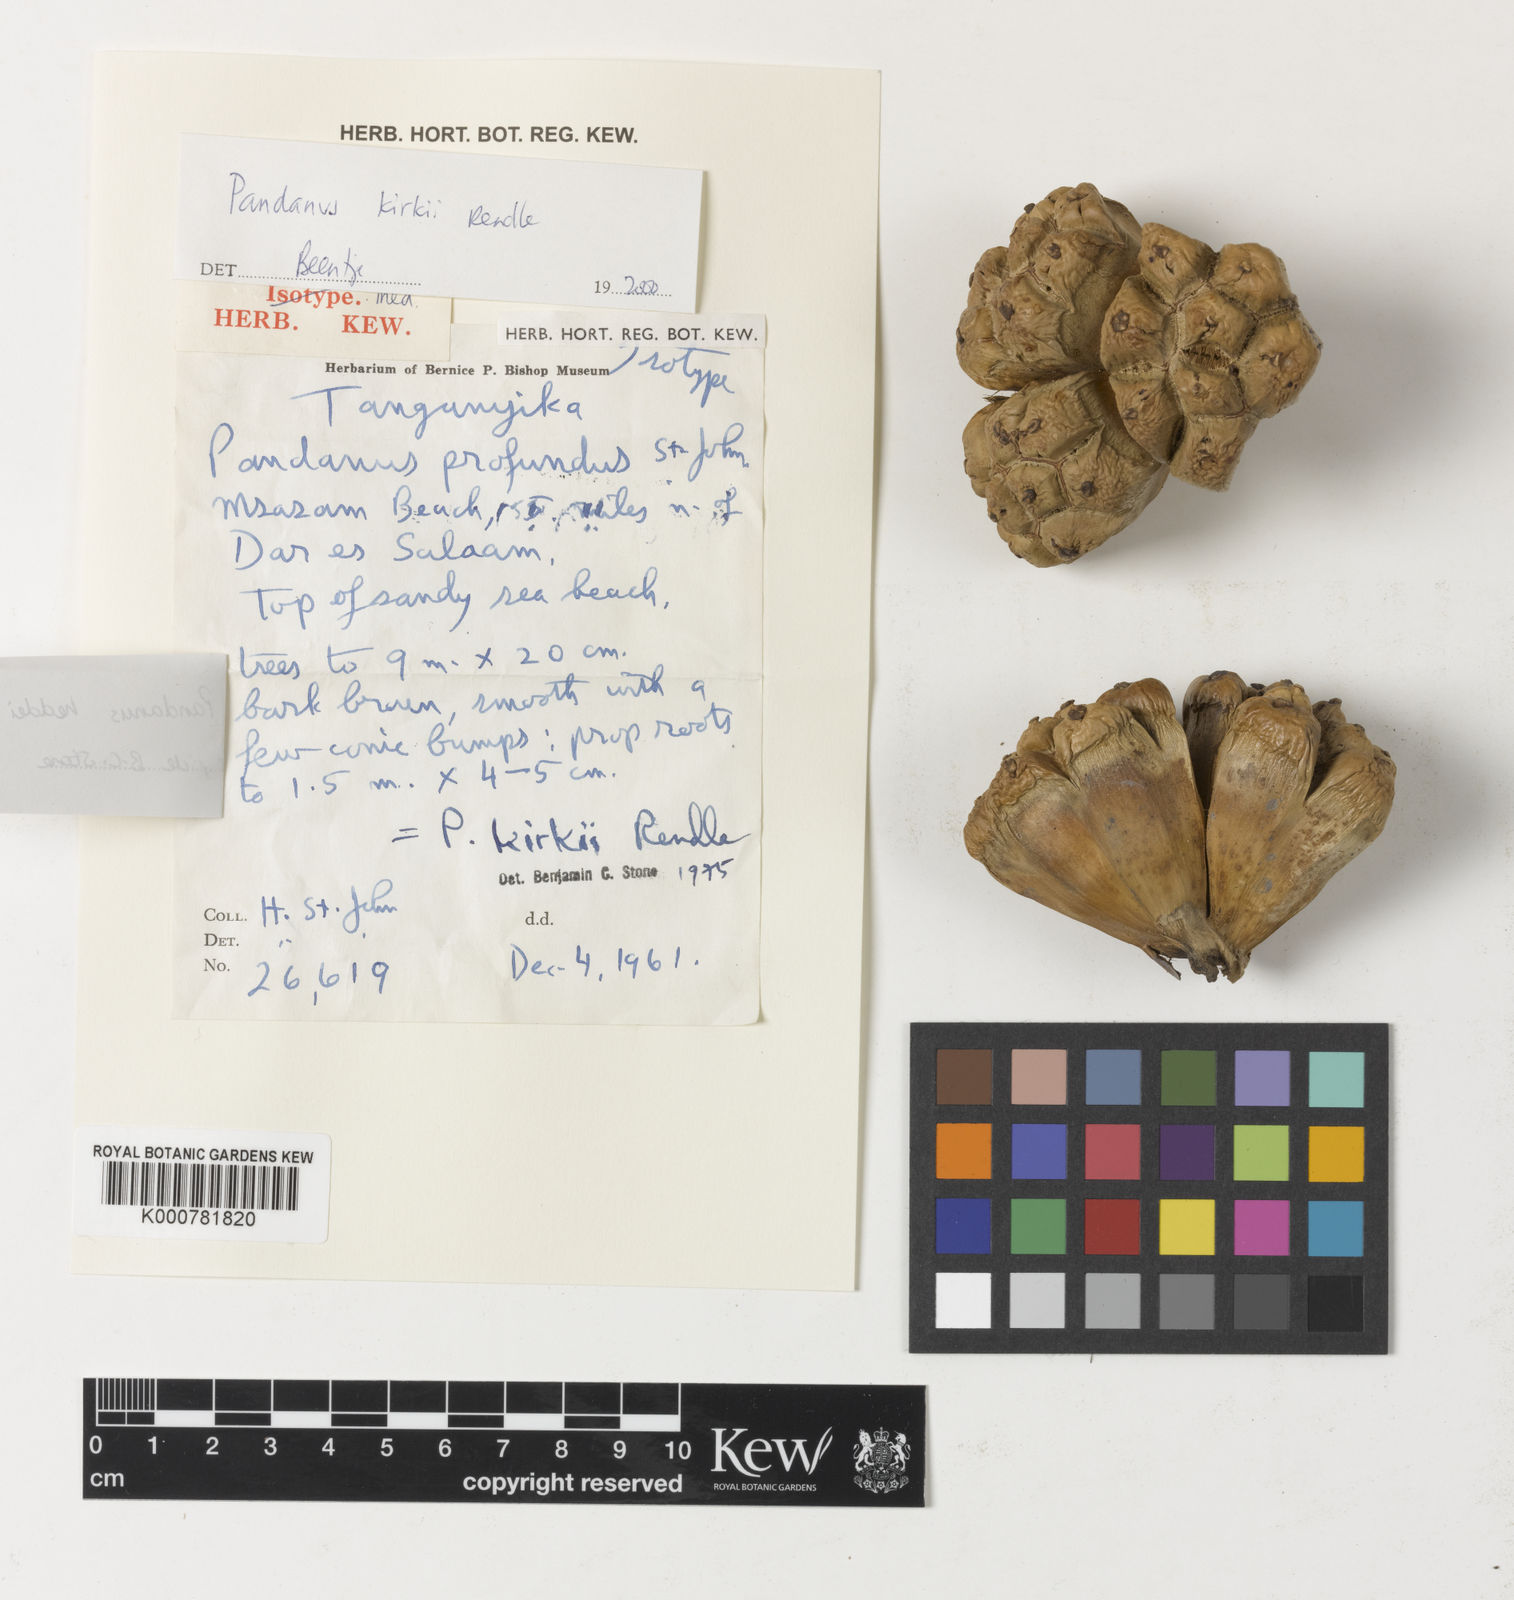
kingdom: Plantae
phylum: Tracheophyta
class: Liliopsida
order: Pandanales
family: Pandanaceae
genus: Pandanus
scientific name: Pandanus kirkii
